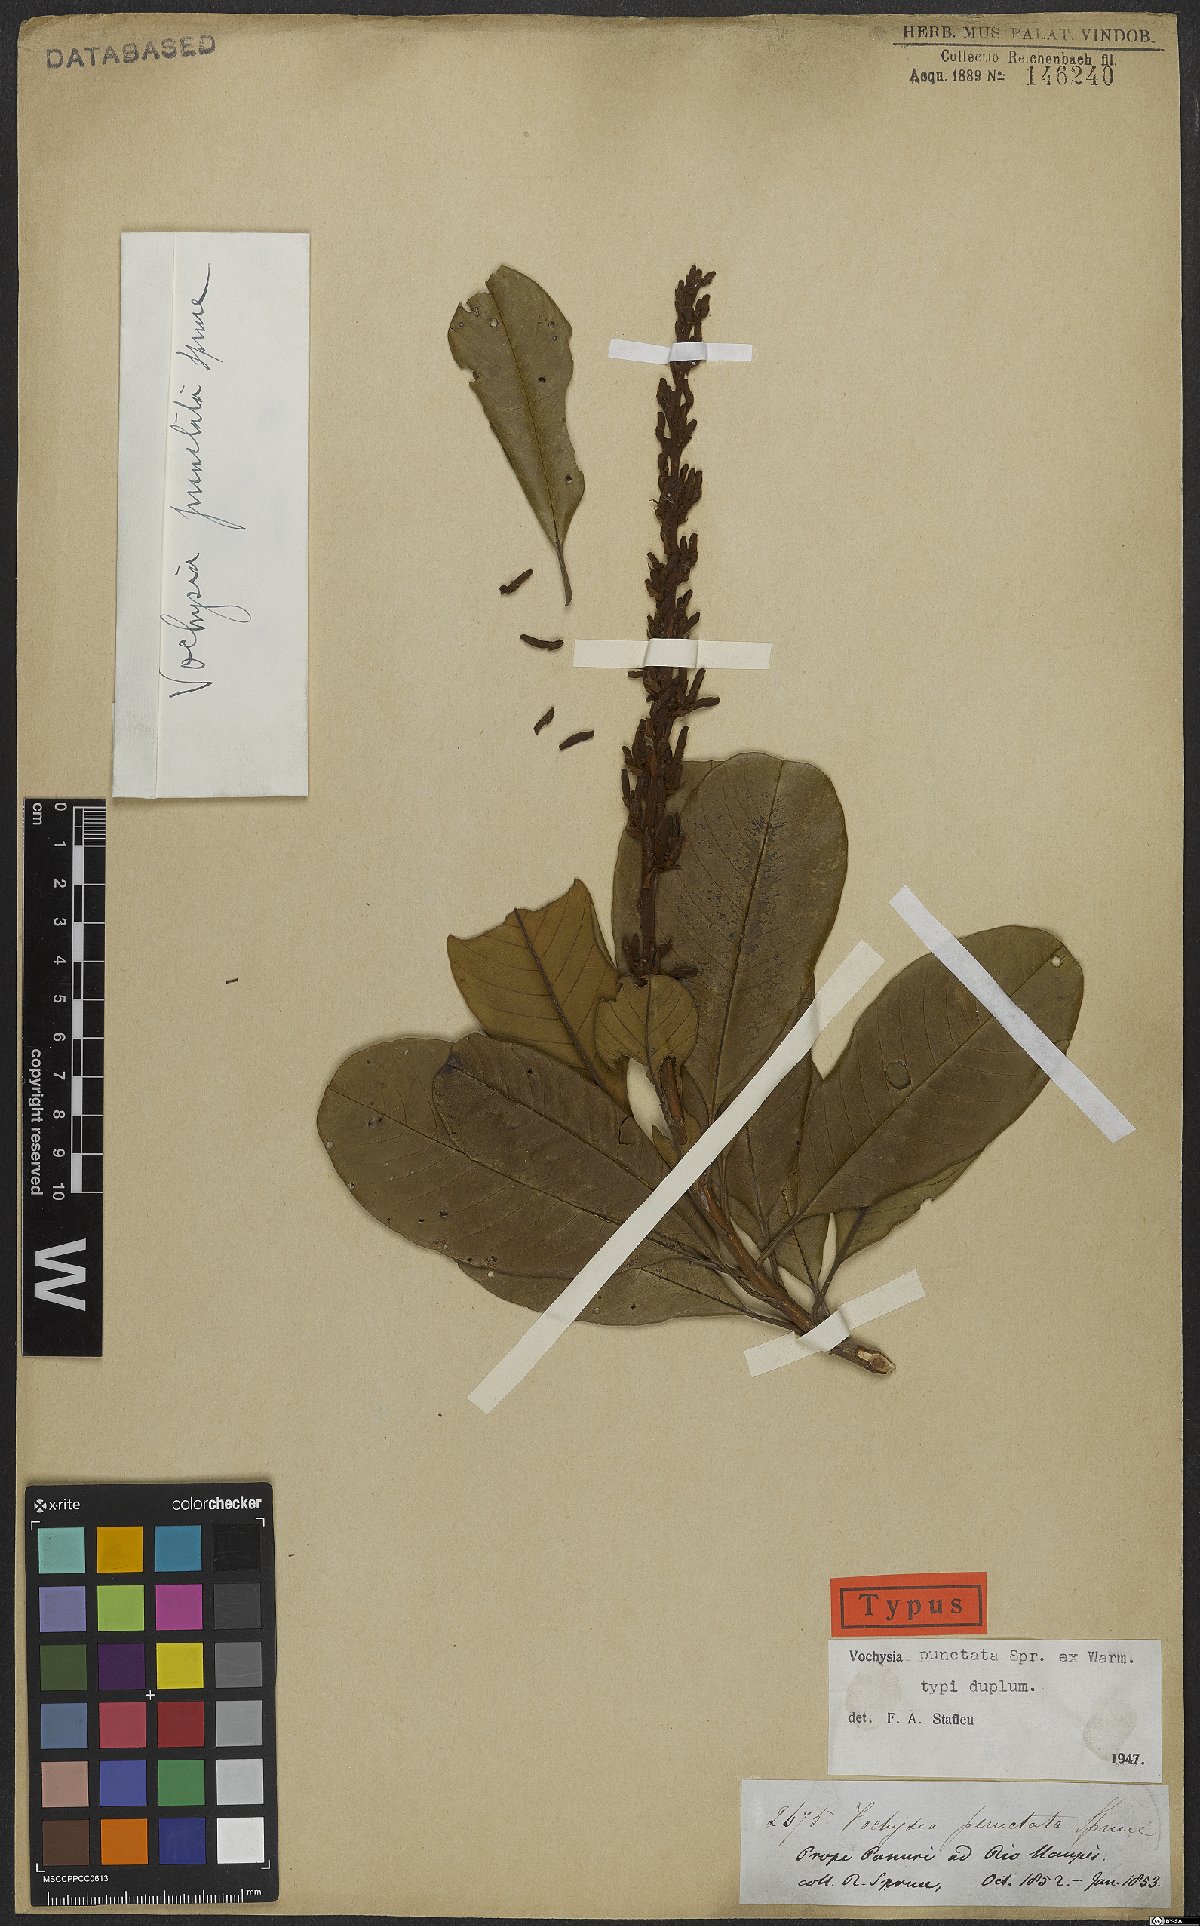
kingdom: Plantae
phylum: Tracheophyta
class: Magnoliopsida
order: Myrtales
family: Vochysiaceae
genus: Vochysia
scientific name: Vochysia punctata
